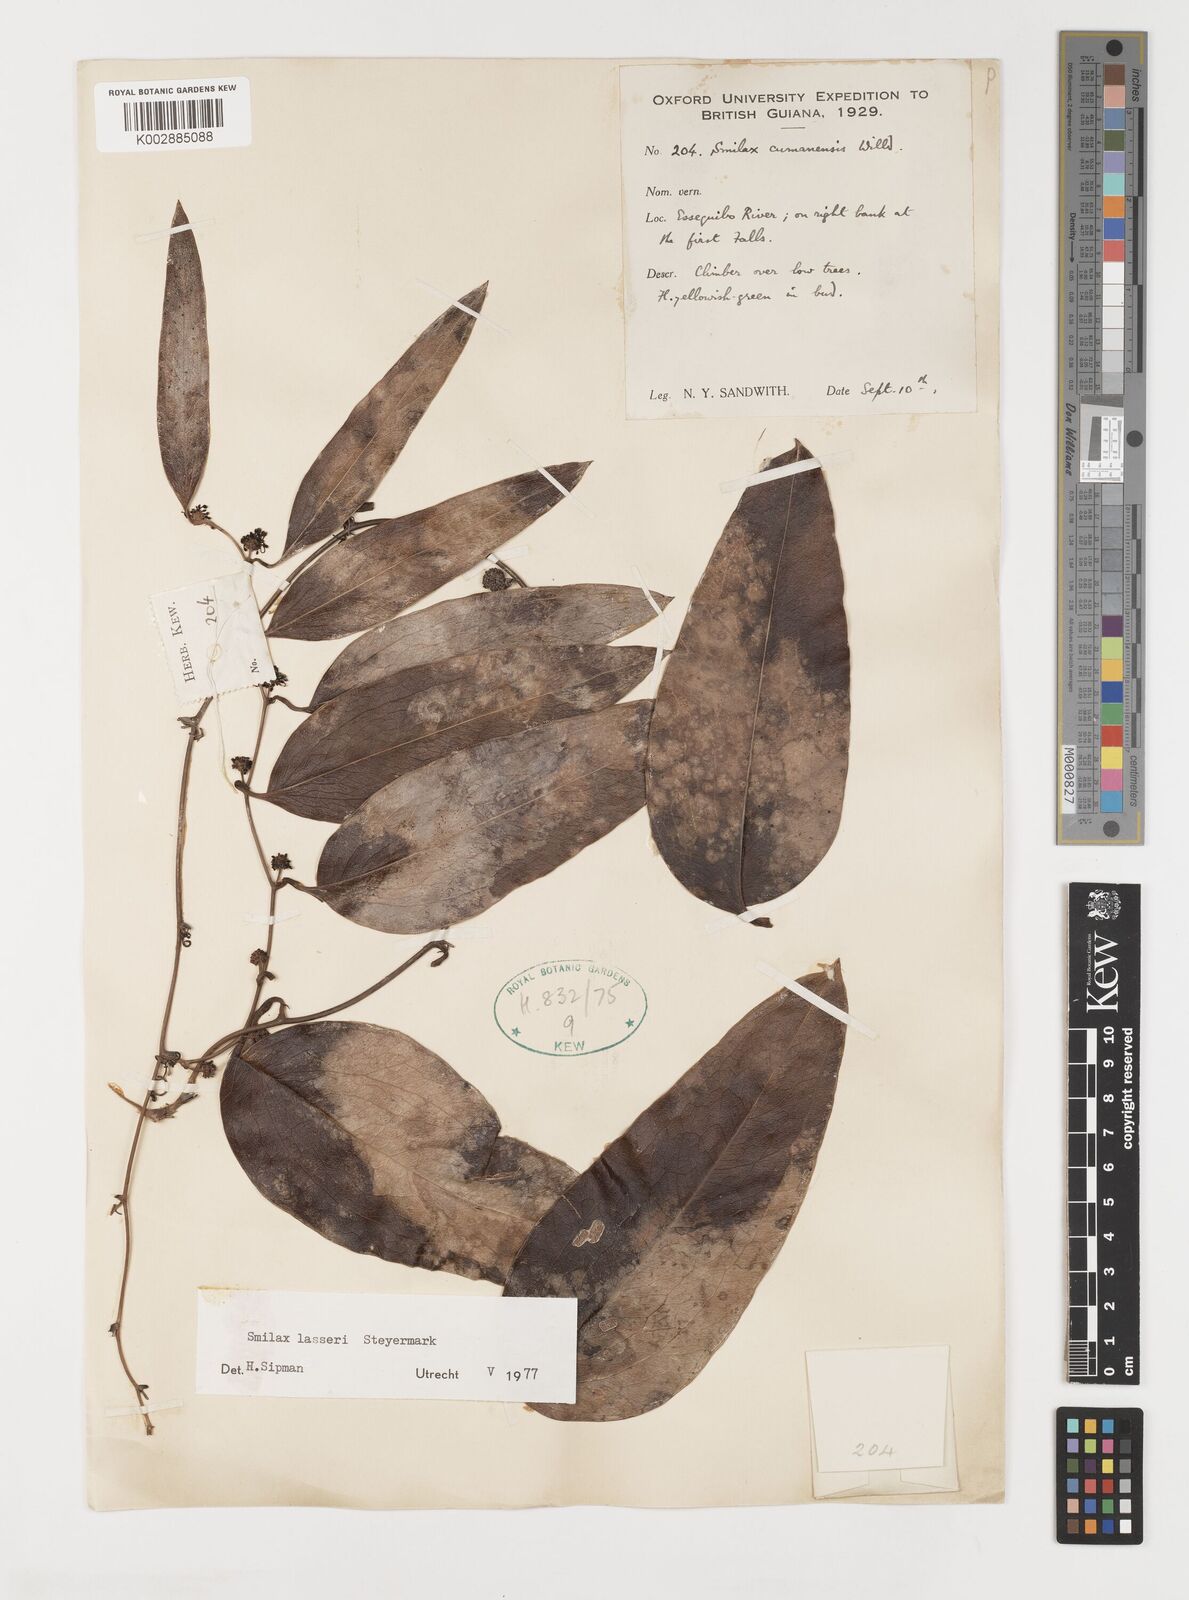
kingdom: Plantae
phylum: Tracheophyta
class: Liliopsida
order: Liliales
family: Smilacaceae
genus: Smilax
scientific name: Smilax domingensis
